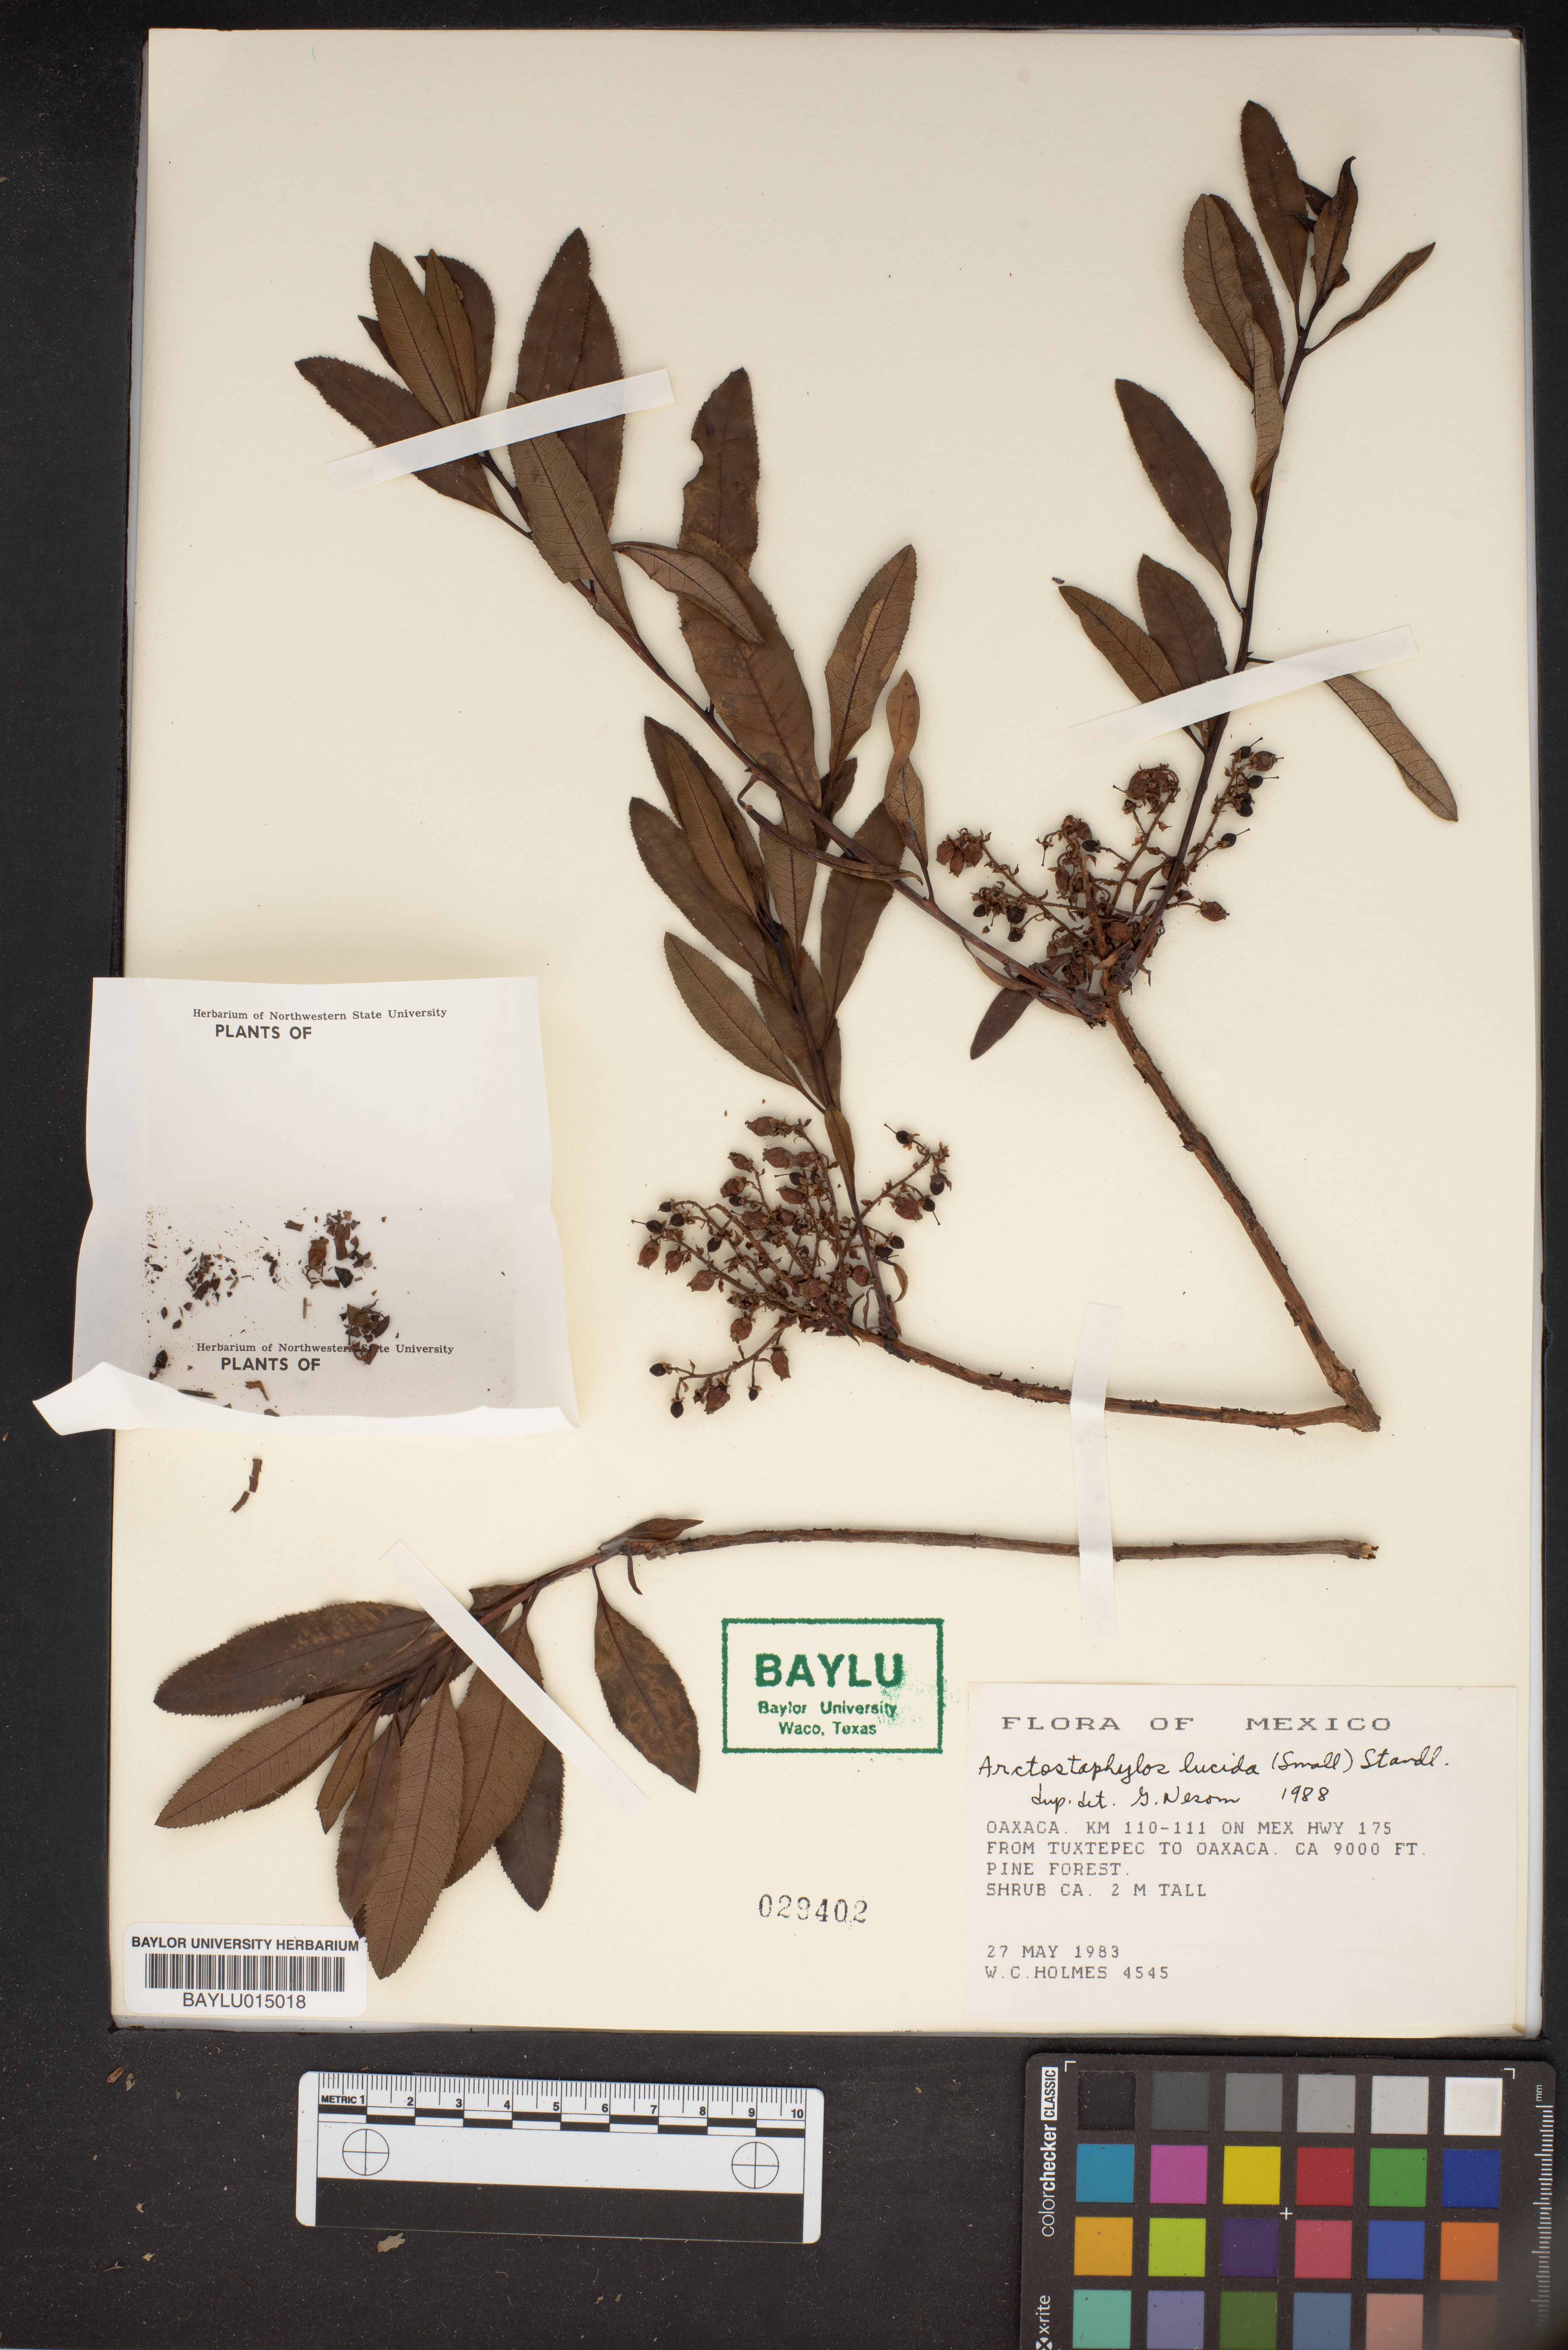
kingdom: Plantae
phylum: Tracheophyta
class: Magnoliopsida
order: Ericales
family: Ericaceae
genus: Comarostaphylis
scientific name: Comarostaphylis discolor
